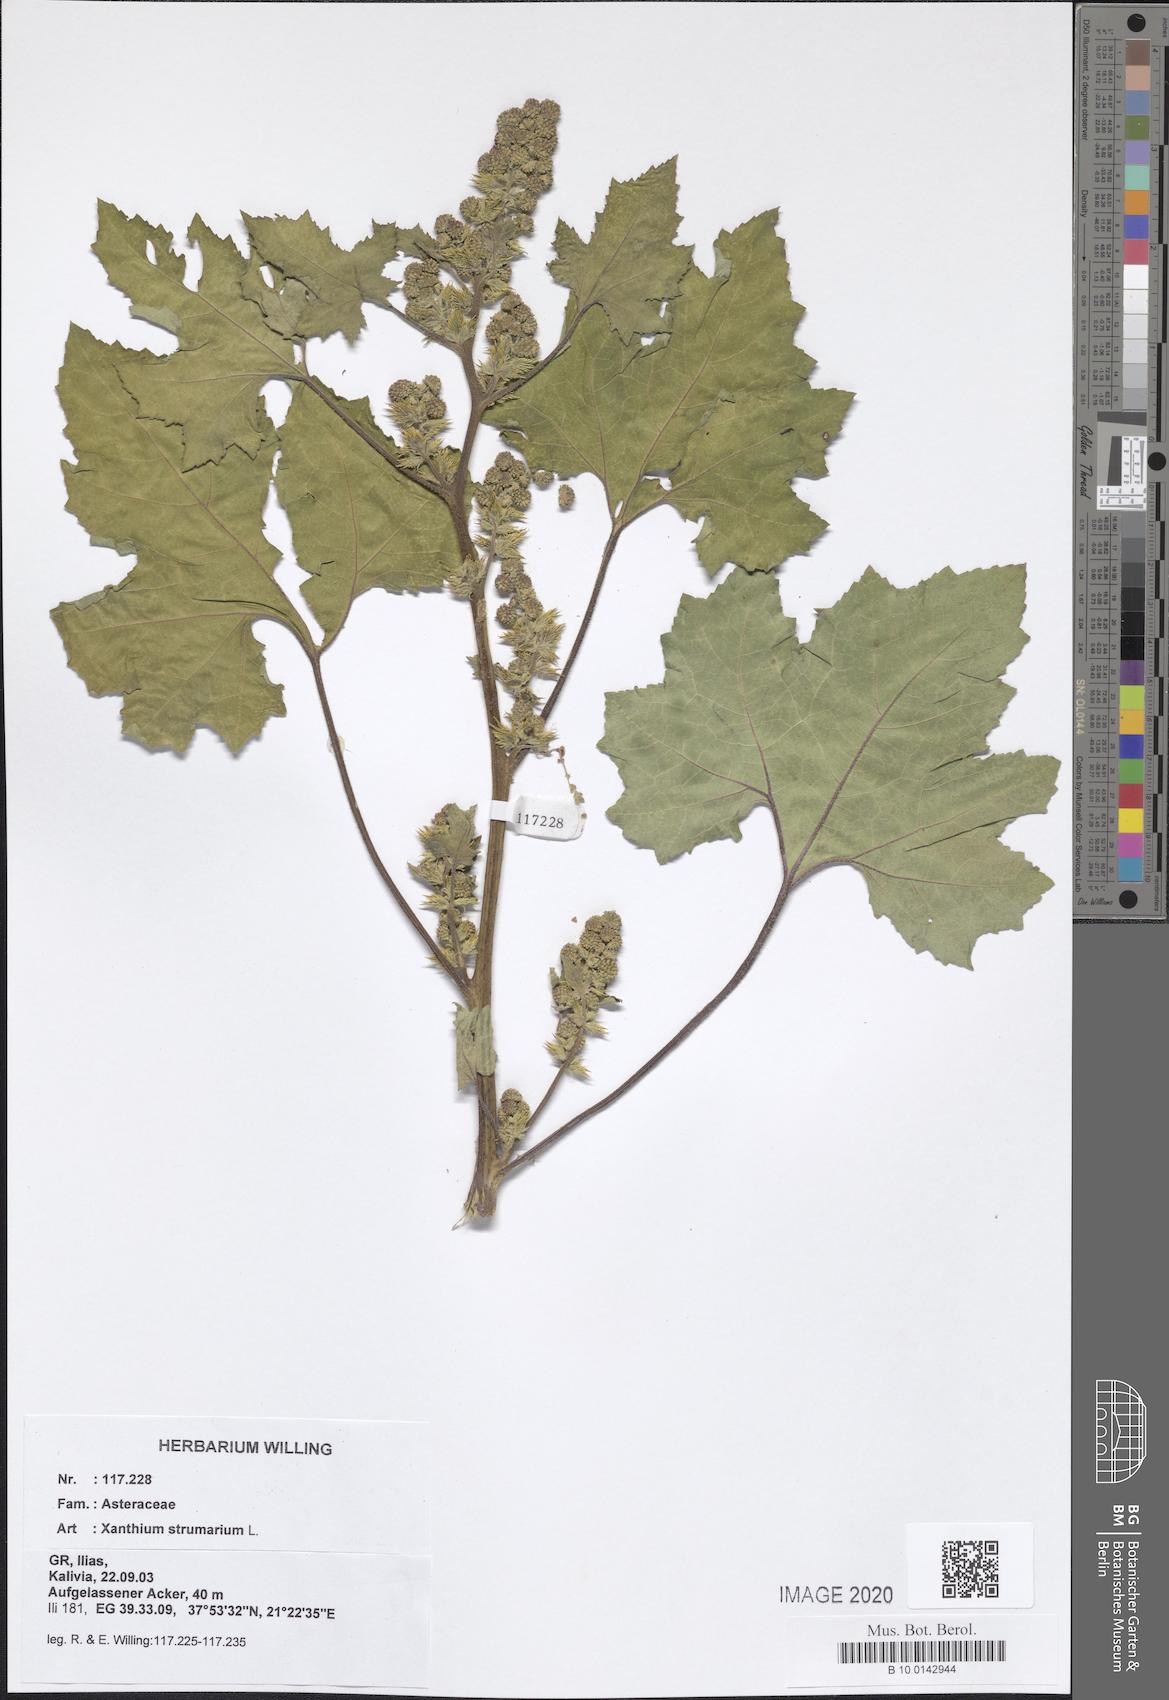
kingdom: Plantae
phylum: Tracheophyta
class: Magnoliopsida
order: Asterales
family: Asteraceae
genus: Xanthium
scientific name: Xanthium strumarium
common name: Rough cocklebur
